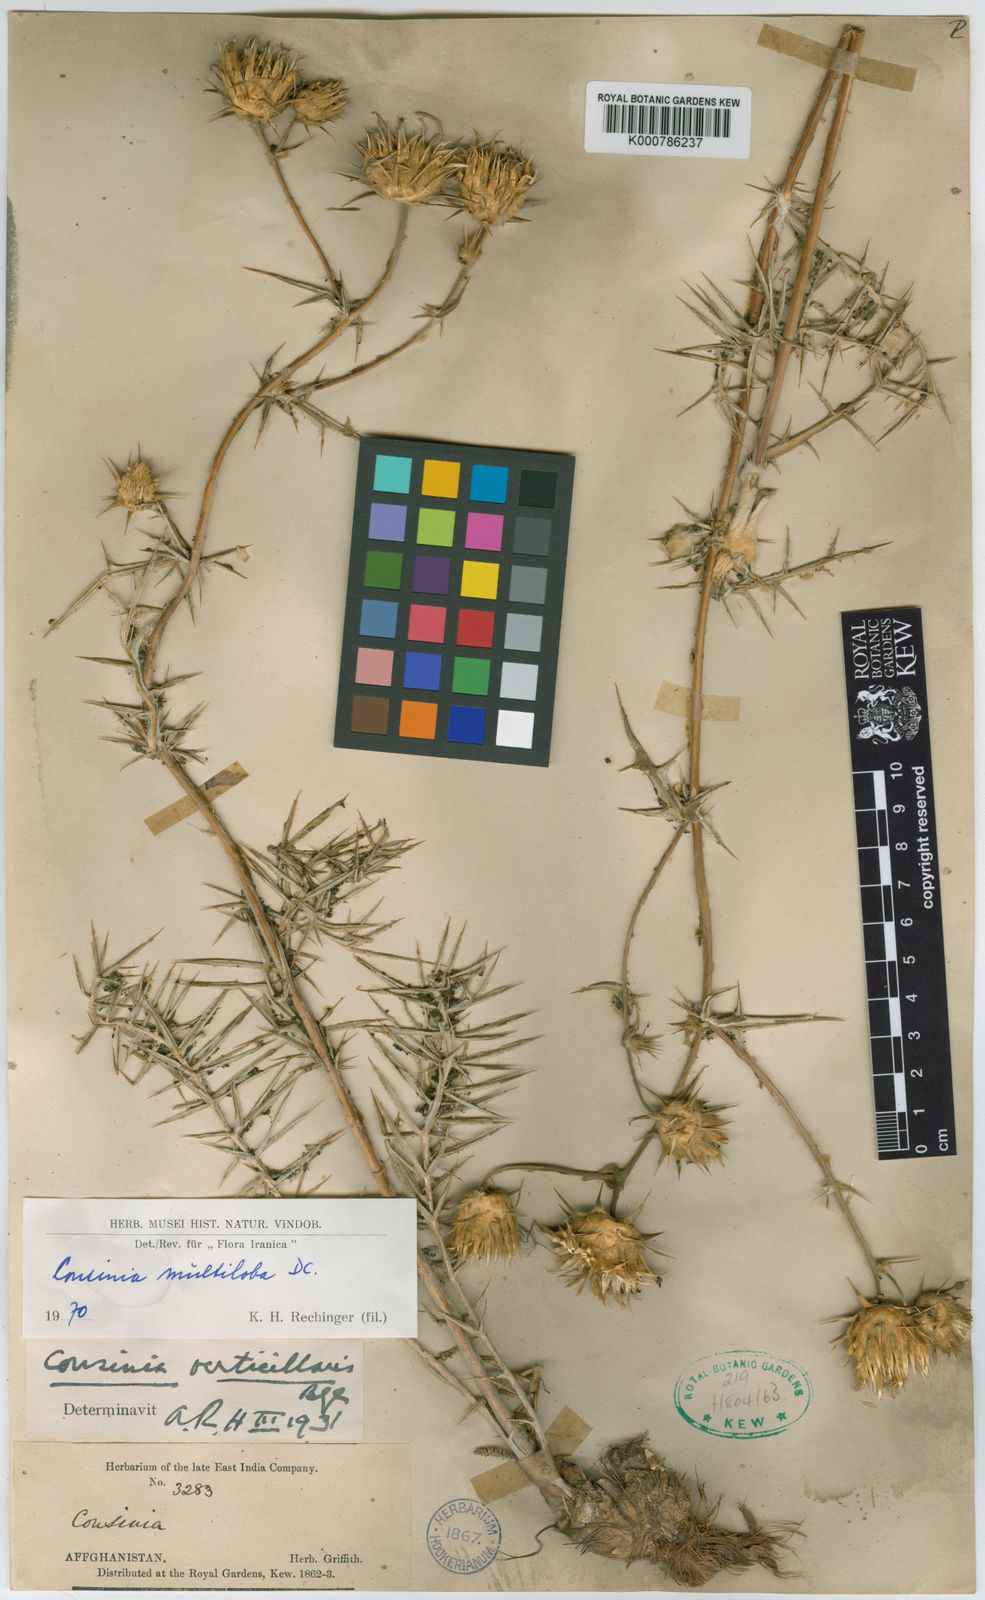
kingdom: Plantae
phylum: Tracheophyta
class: Magnoliopsida
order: Asterales
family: Asteraceae
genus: Cousinia
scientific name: Cousinia multiloba
